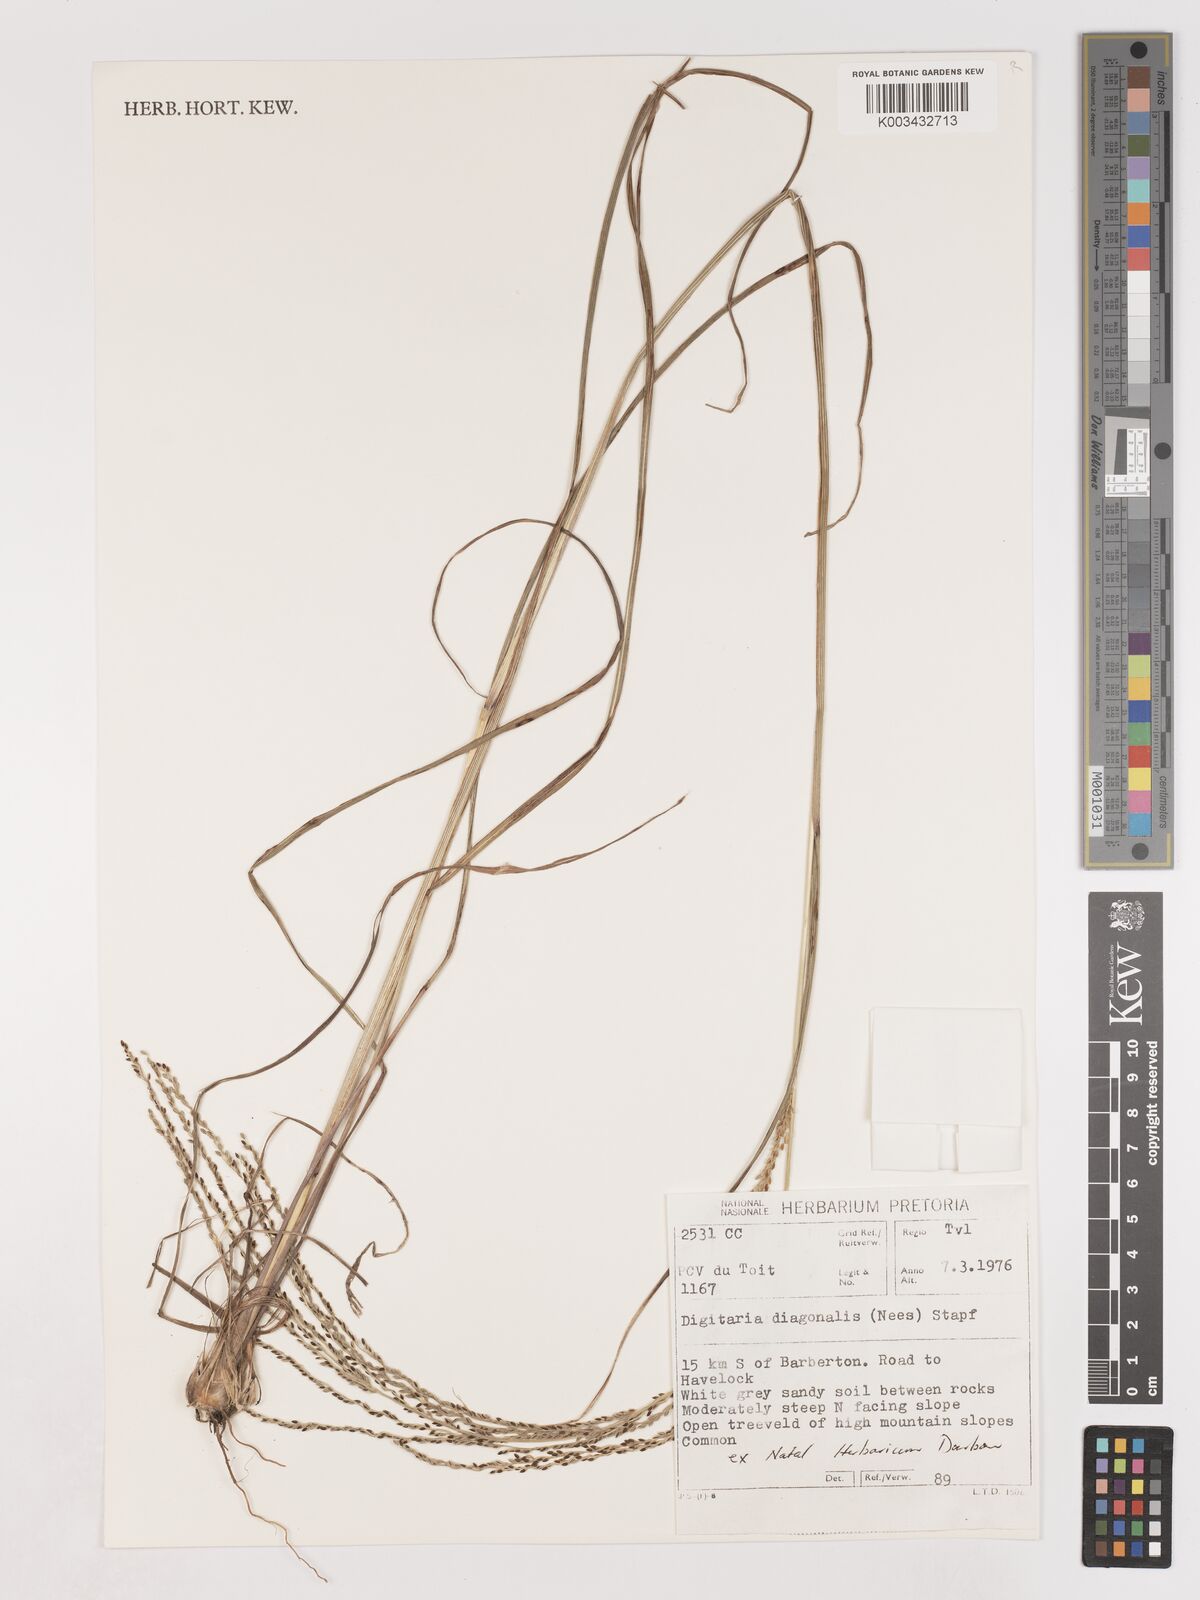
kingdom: Plantae
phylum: Tracheophyta
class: Liliopsida
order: Poales
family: Poaceae
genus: Digitaria
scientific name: Digitaria diagonalis
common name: Brown-seed finger grass
